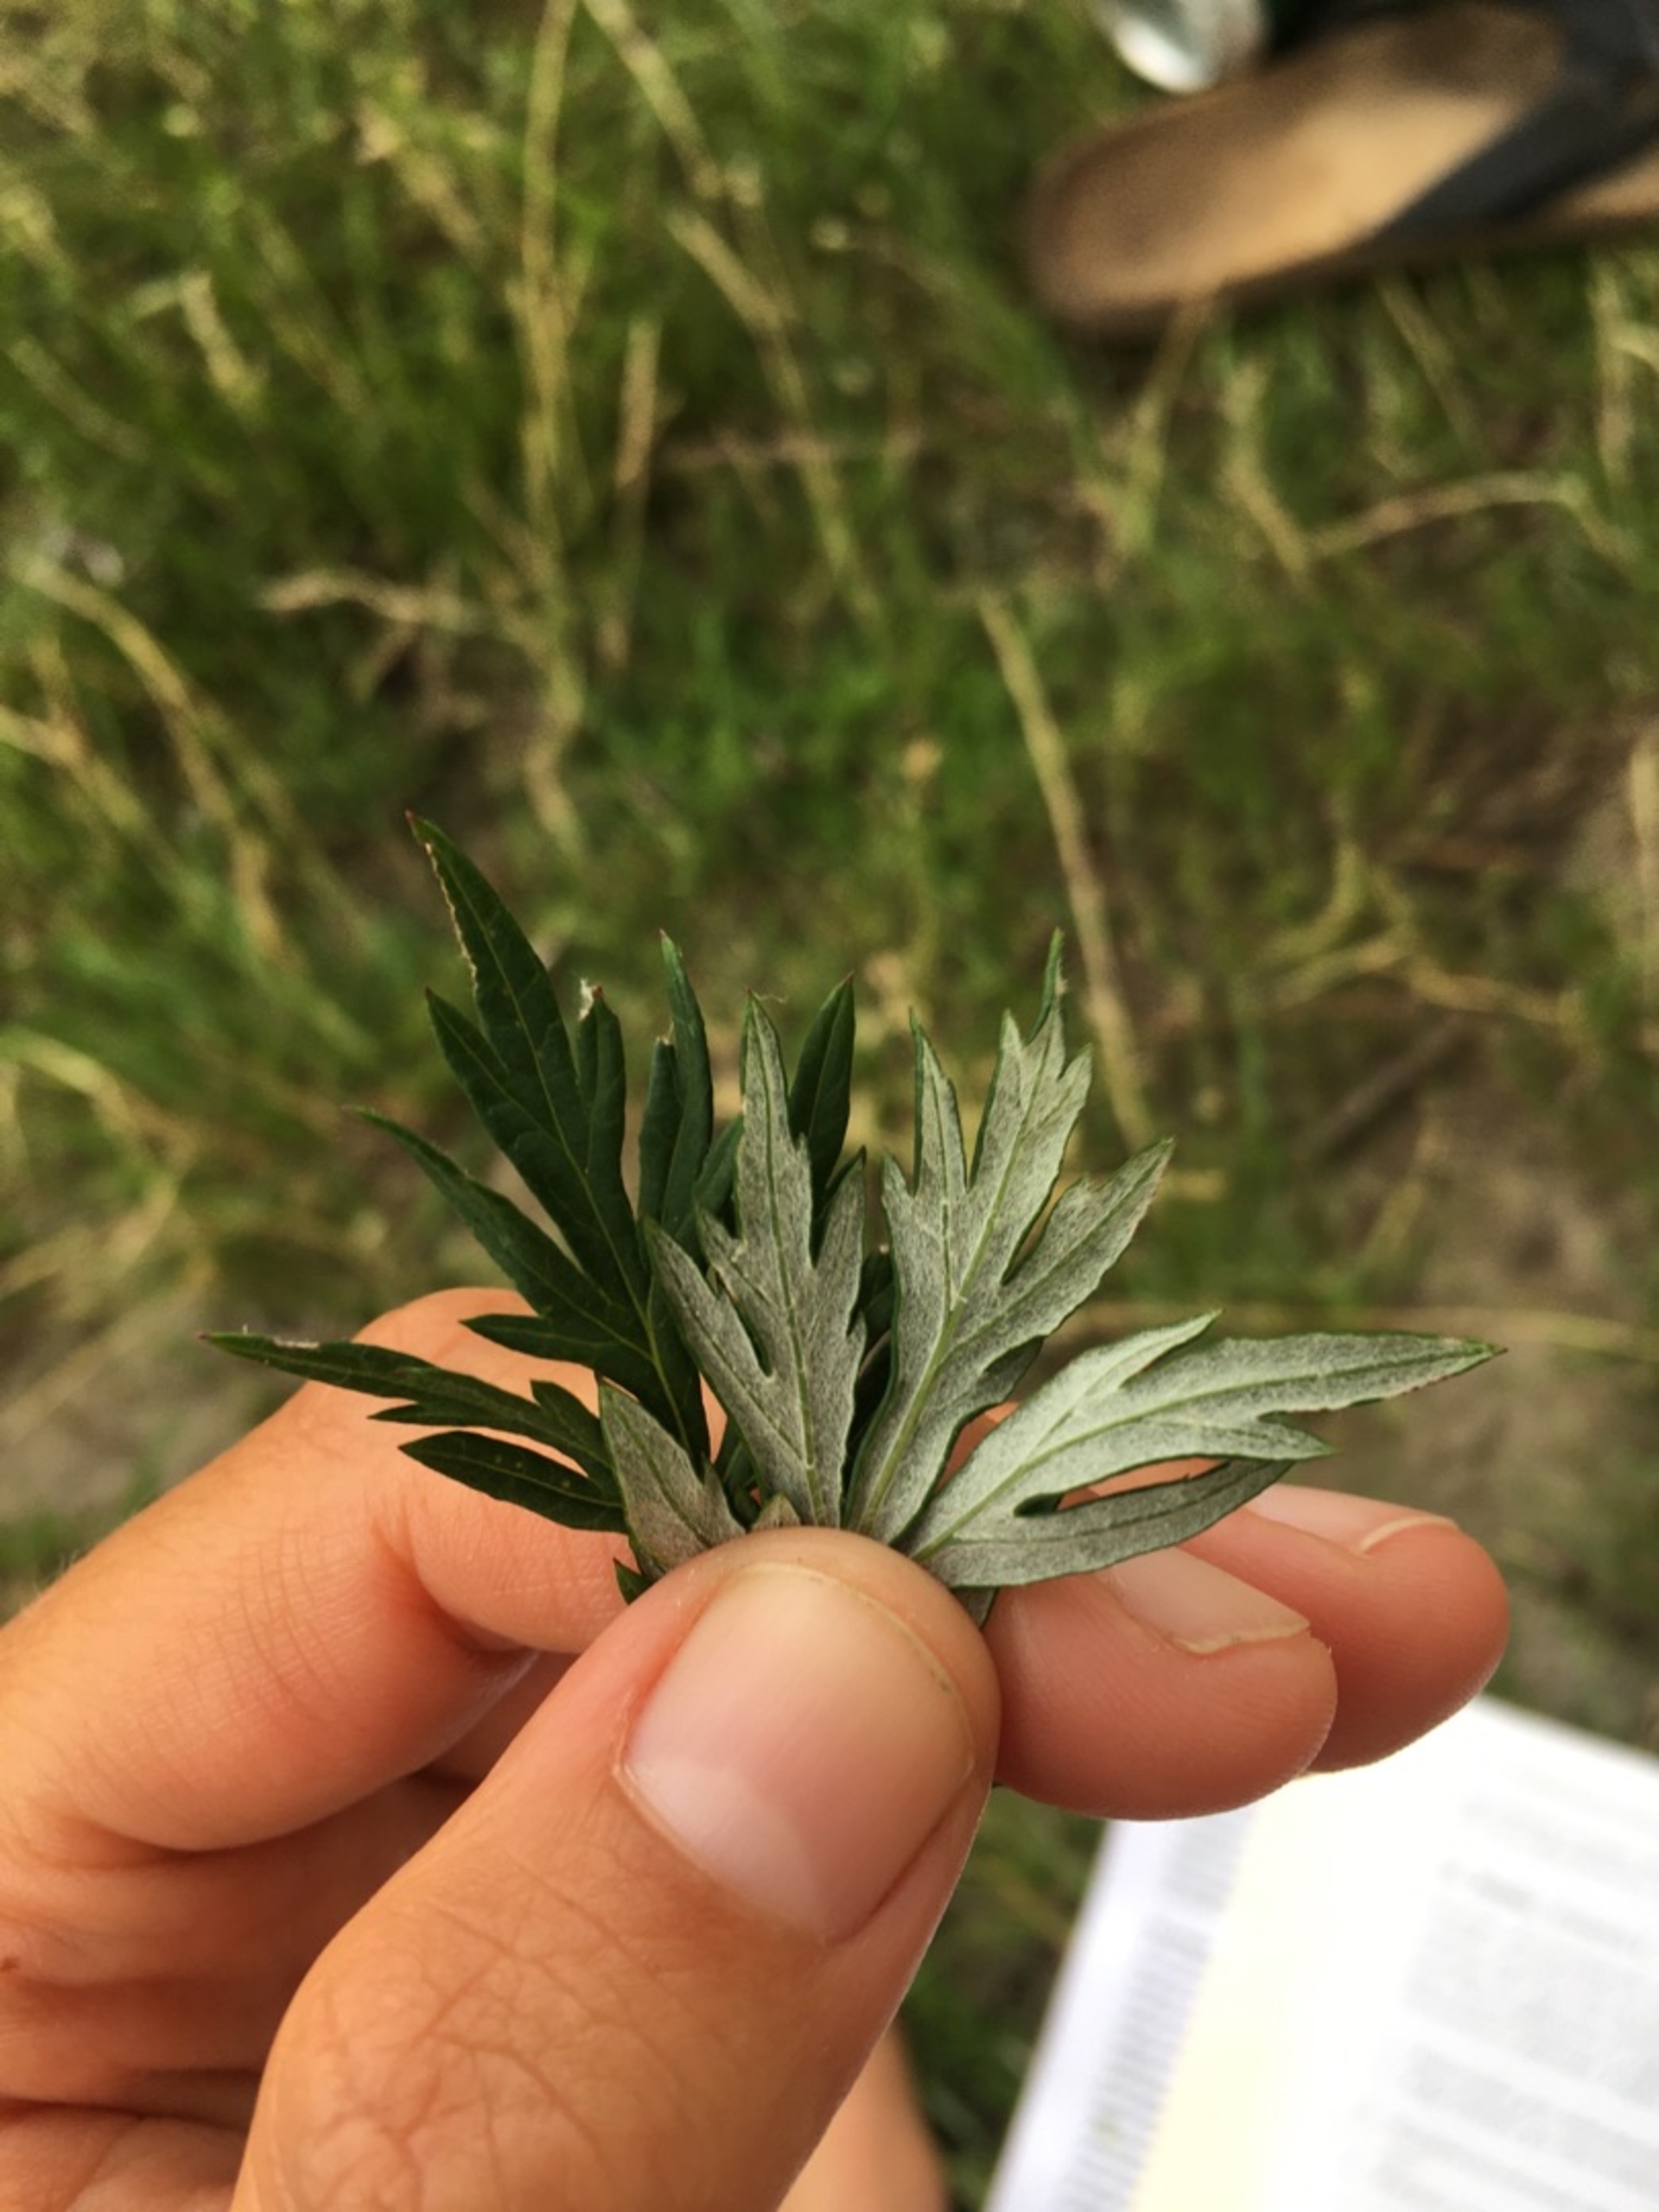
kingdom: Plantae
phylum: Tracheophyta
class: Magnoliopsida
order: Asterales
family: Asteraceae
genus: Artemisia
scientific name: Artemisia vulgaris
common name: Grå-bynke
